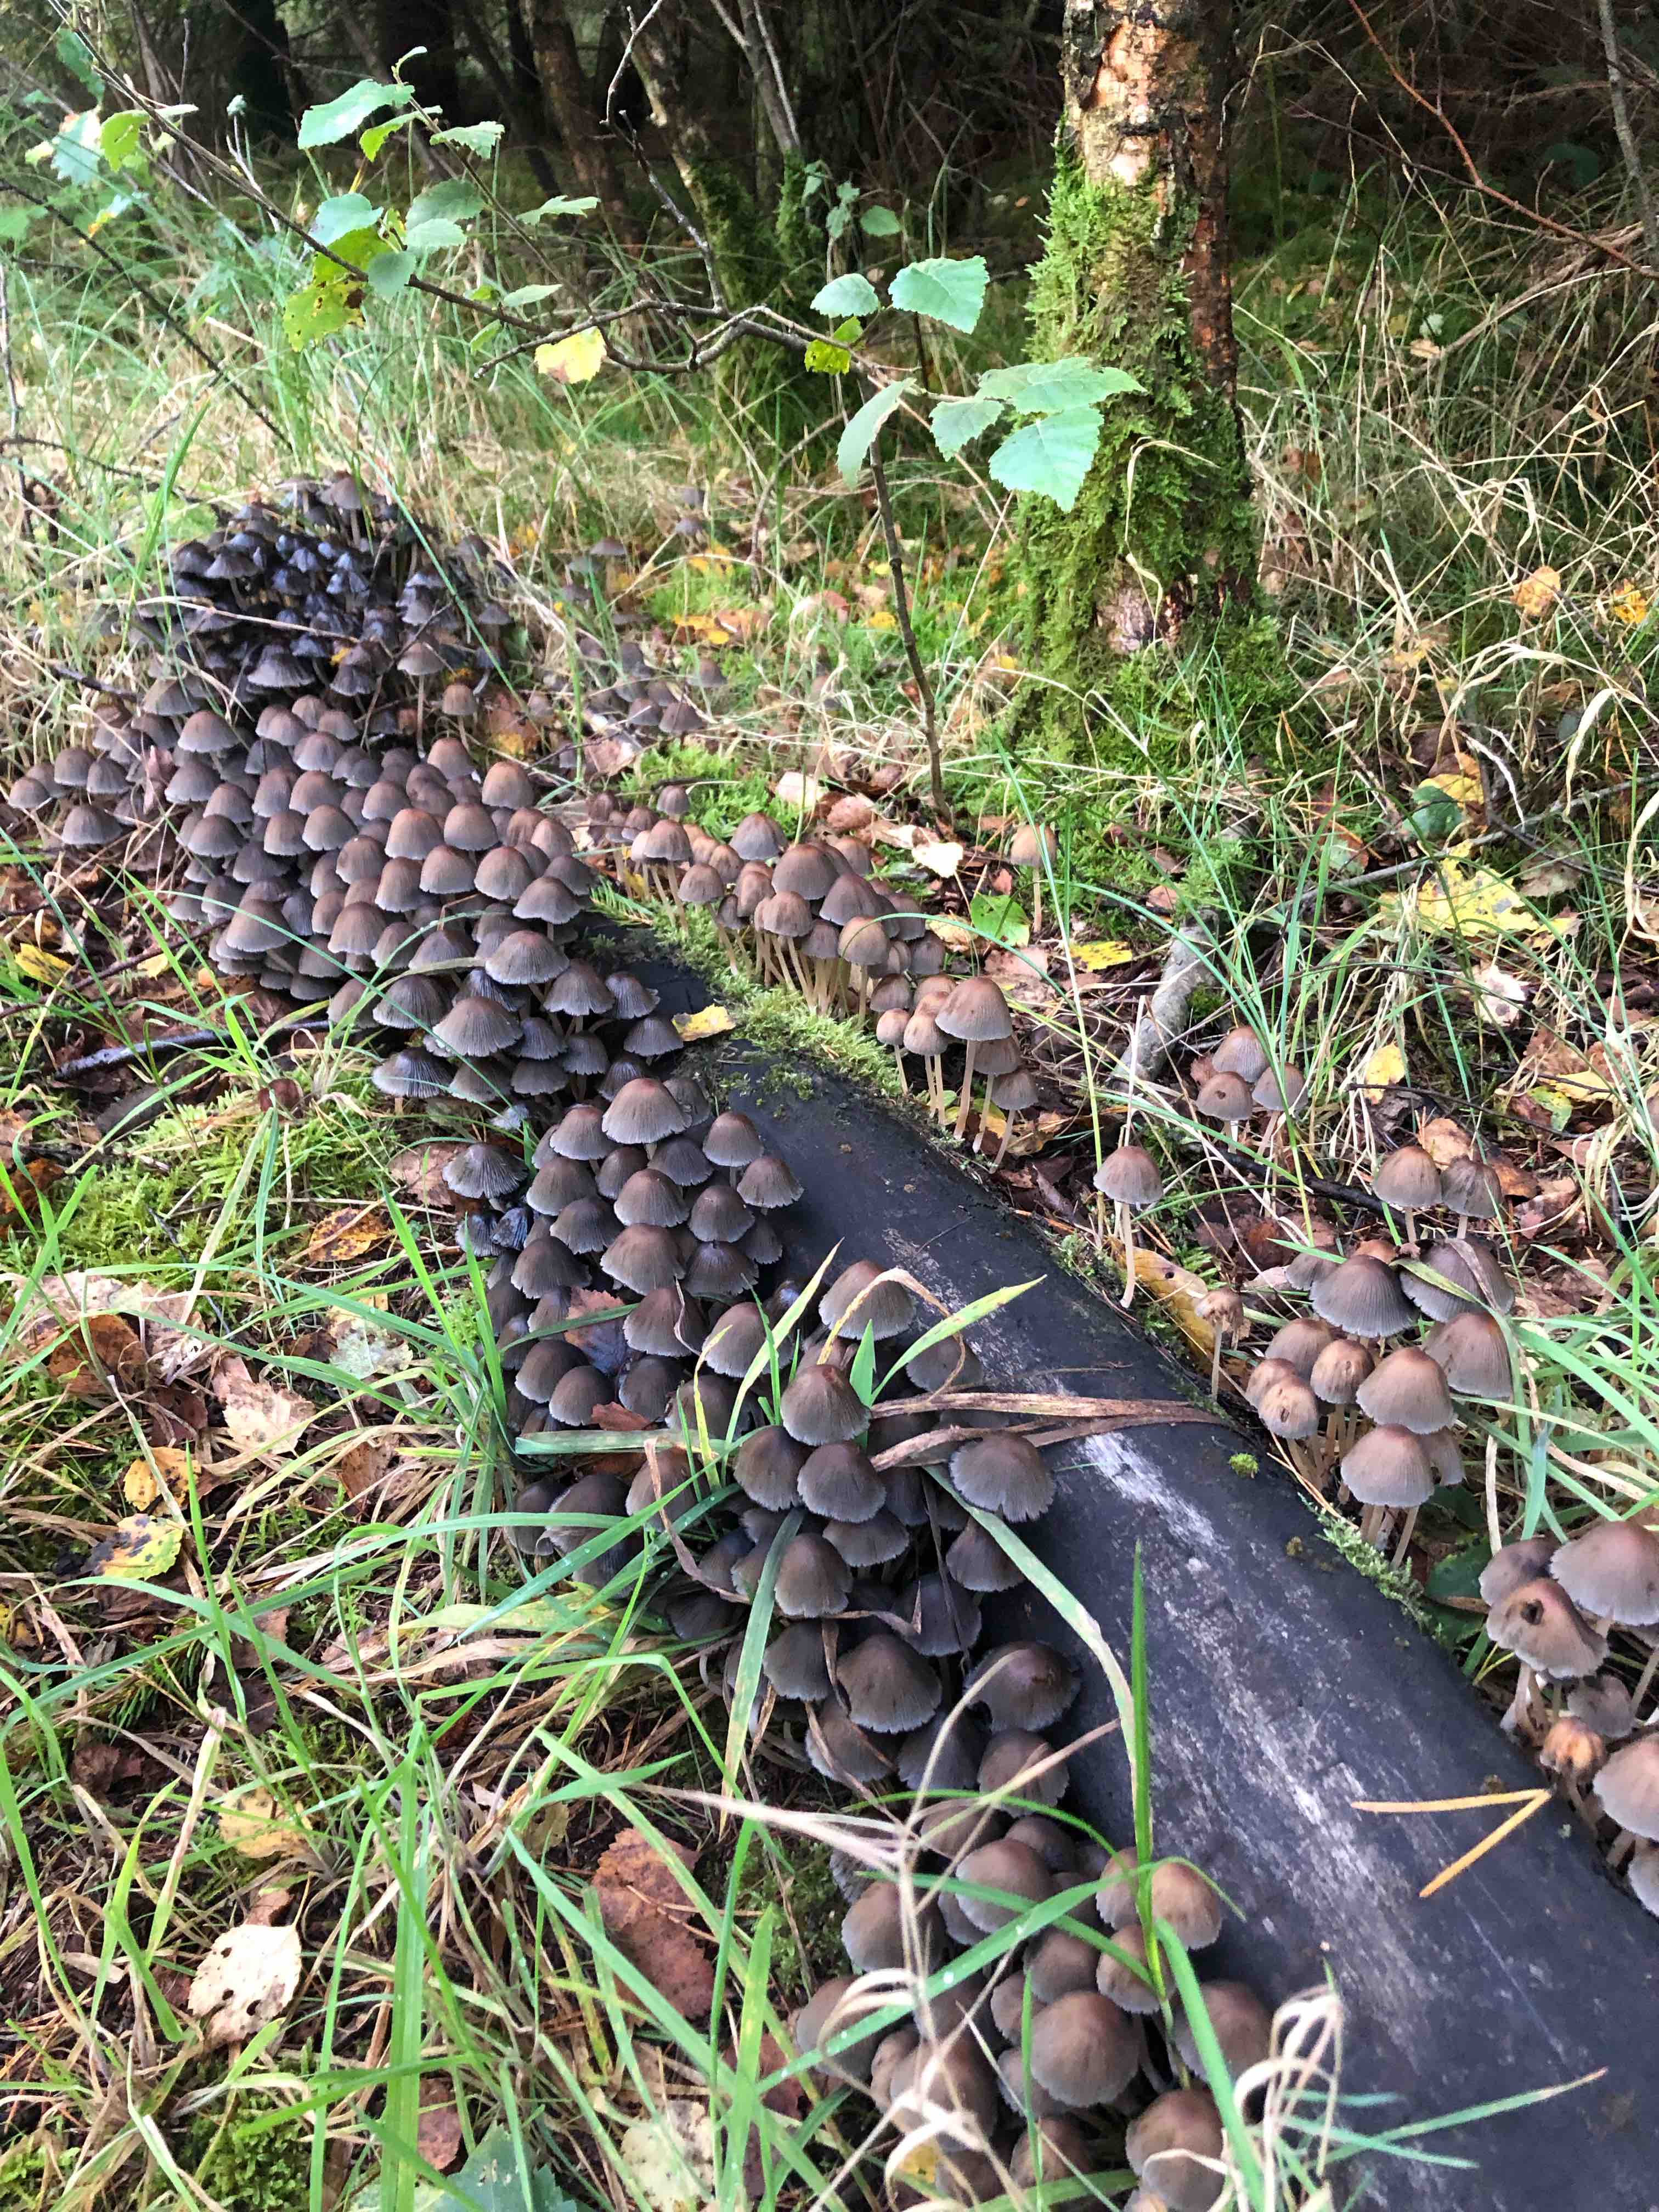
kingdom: Fungi
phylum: Basidiomycota
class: Agaricomycetes
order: Agaricales
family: Psathyrellaceae
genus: Coprinellus
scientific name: Coprinellus disseminatus
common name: bredsået blækhat
